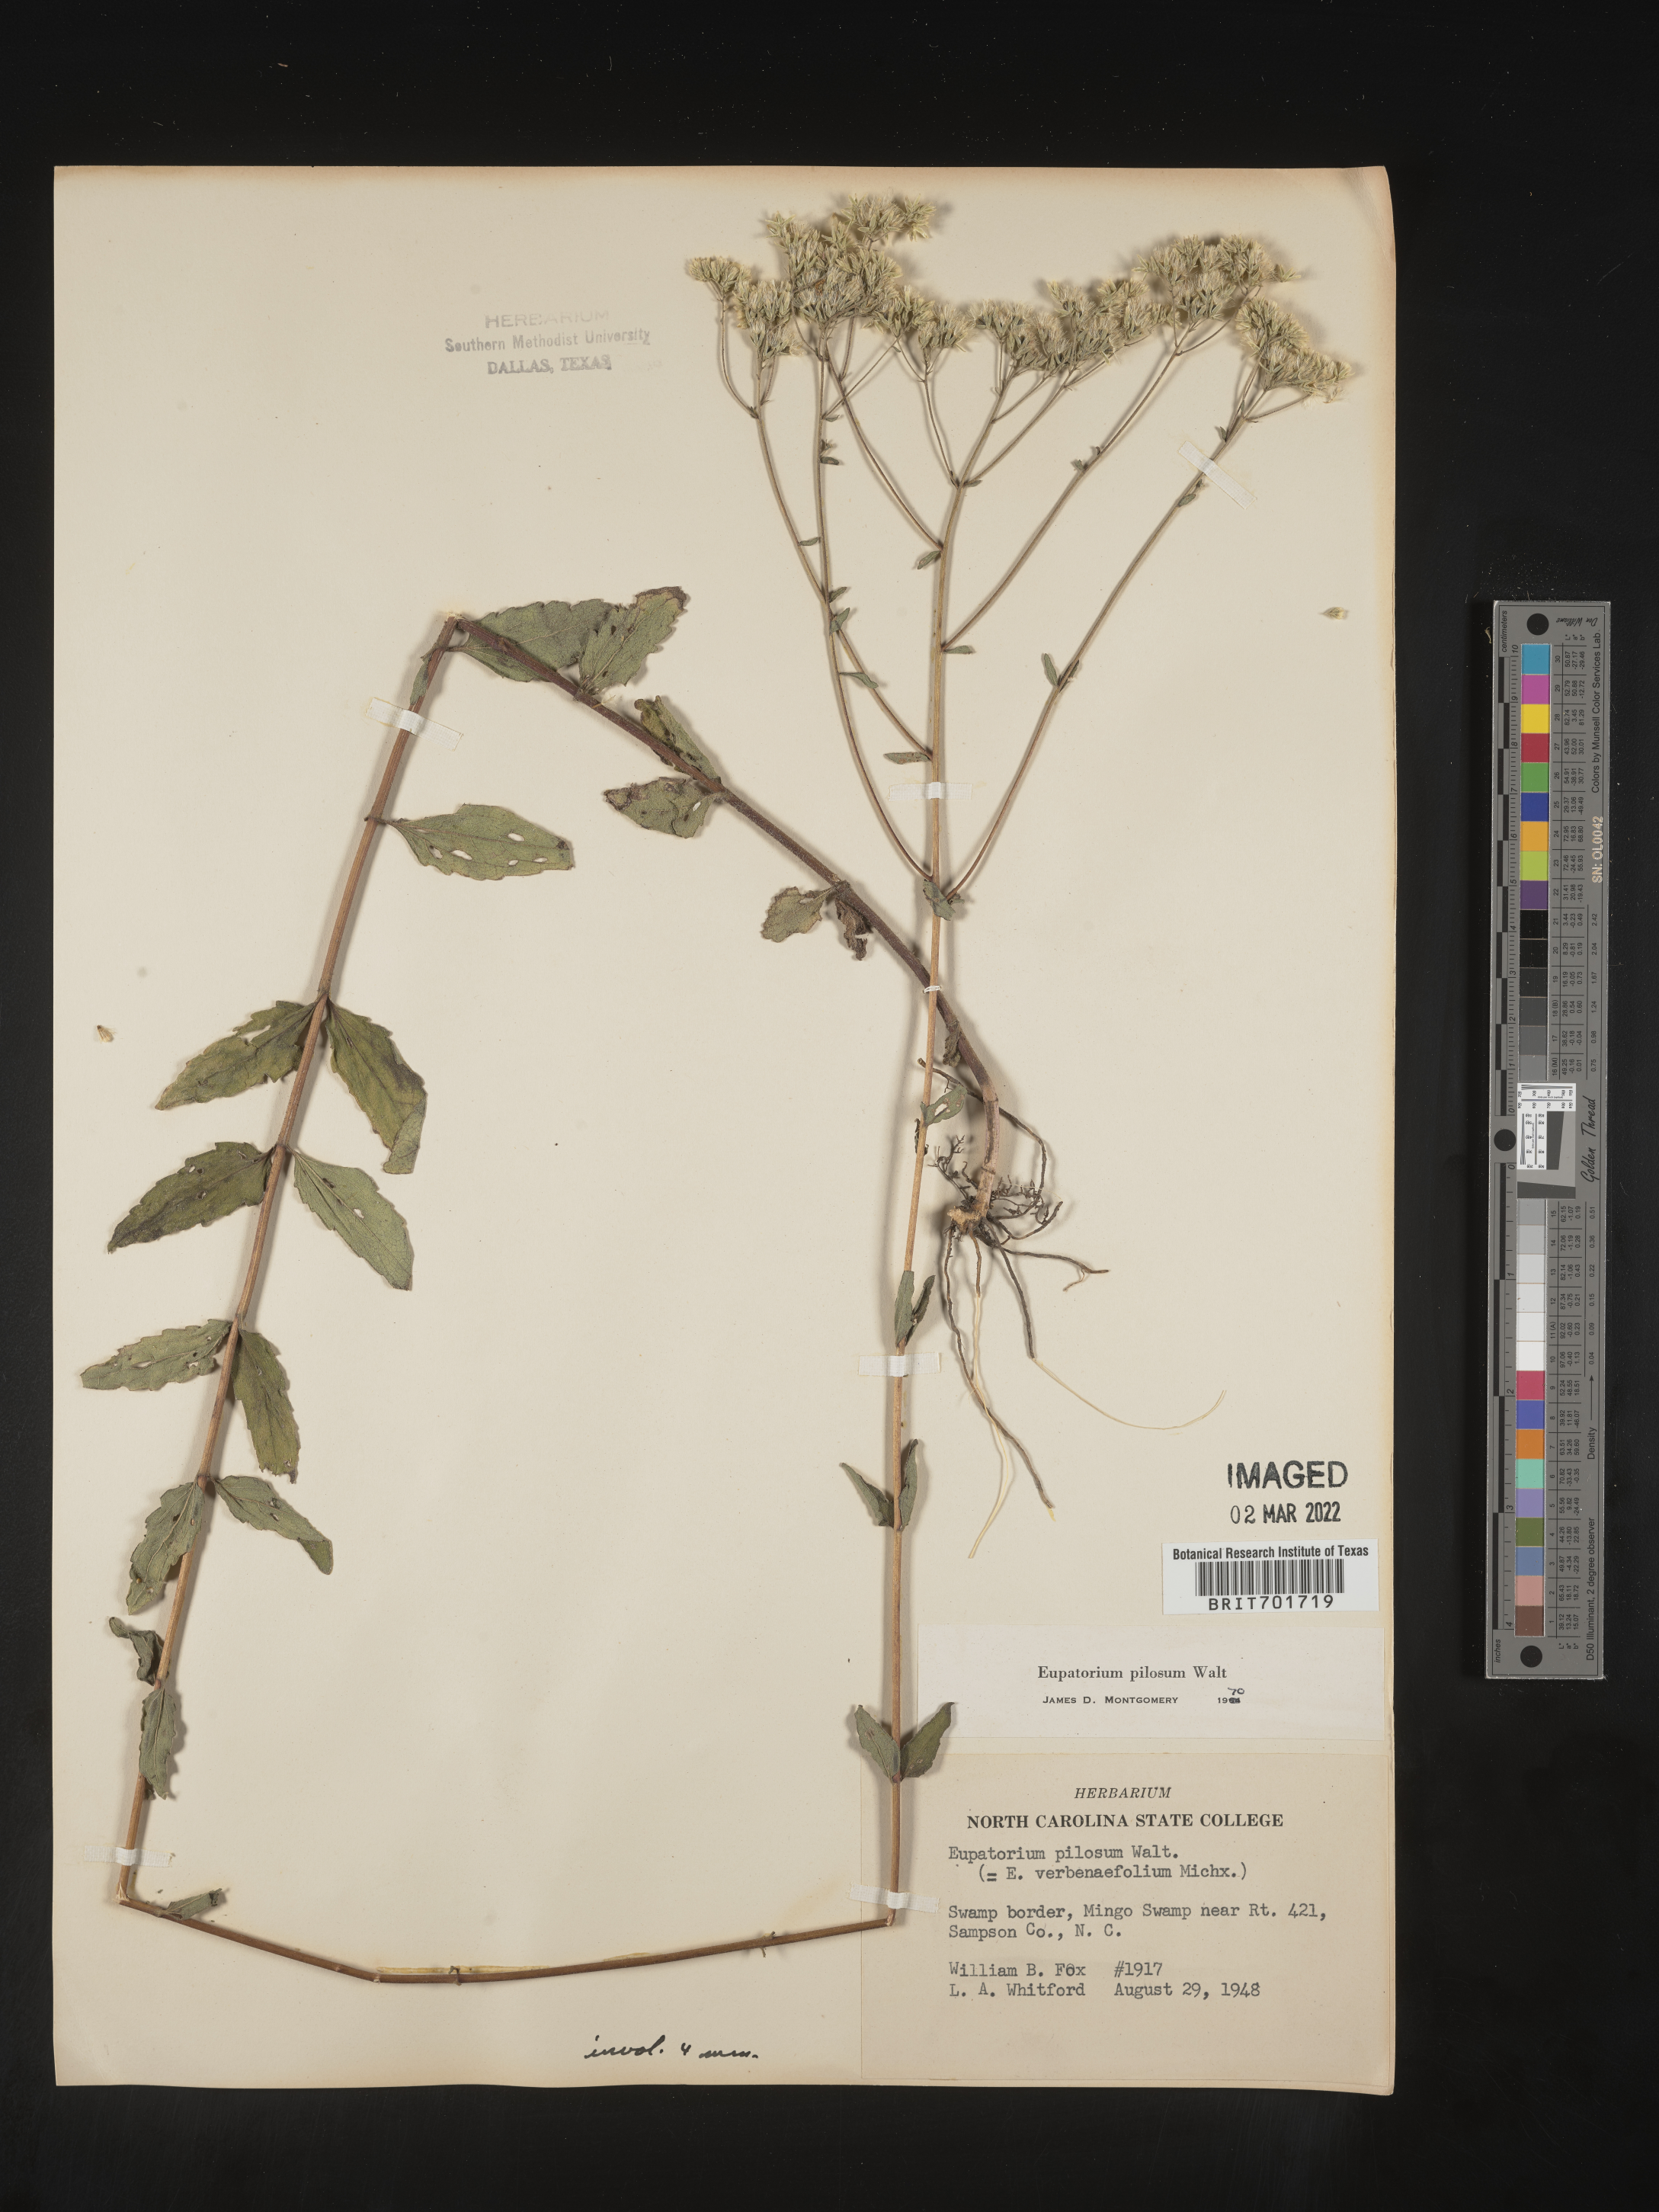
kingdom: Plantae
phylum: Tracheophyta
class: Magnoliopsida
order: Asterales
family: Asteraceae
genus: Eupatorium
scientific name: Eupatorium pilosum
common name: Rough boneset
